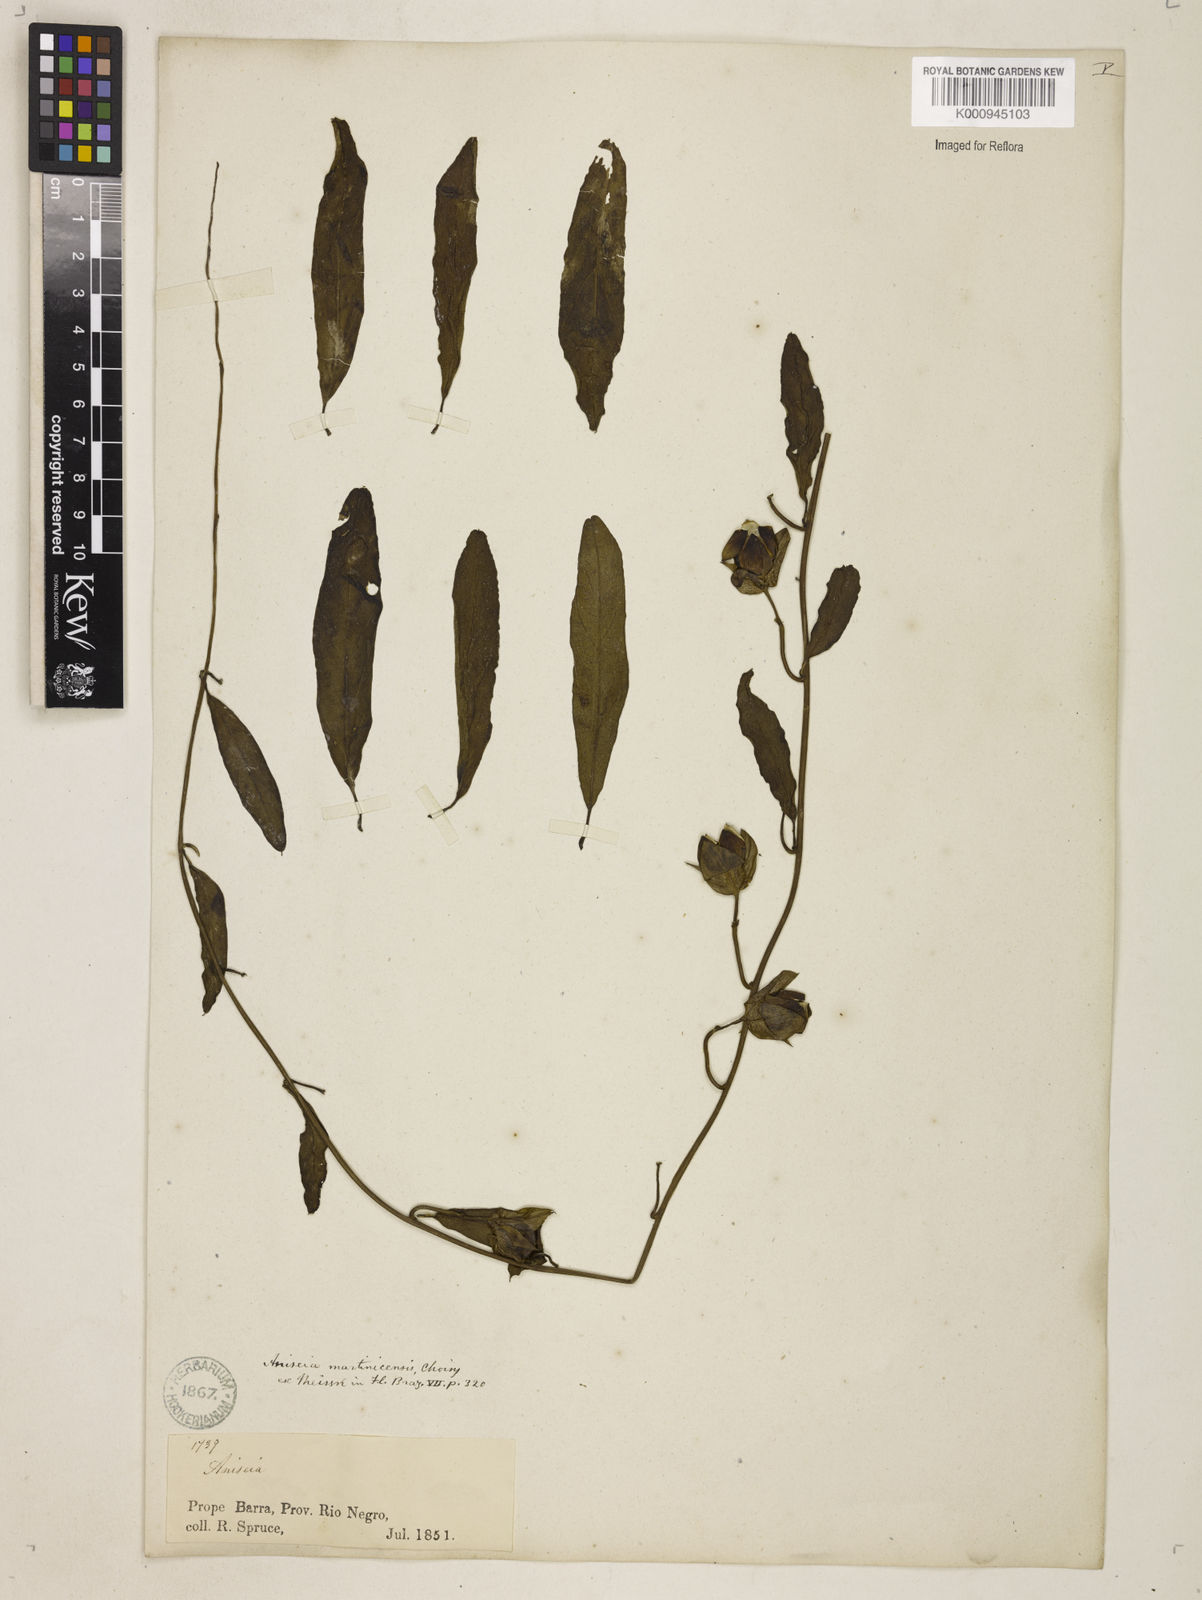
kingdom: Plantae
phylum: Tracheophyta
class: Magnoliopsida
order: Solanales
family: Convolvulaceae
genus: Aniseia
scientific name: Aniseia martinicensis
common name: Kulayadambu
